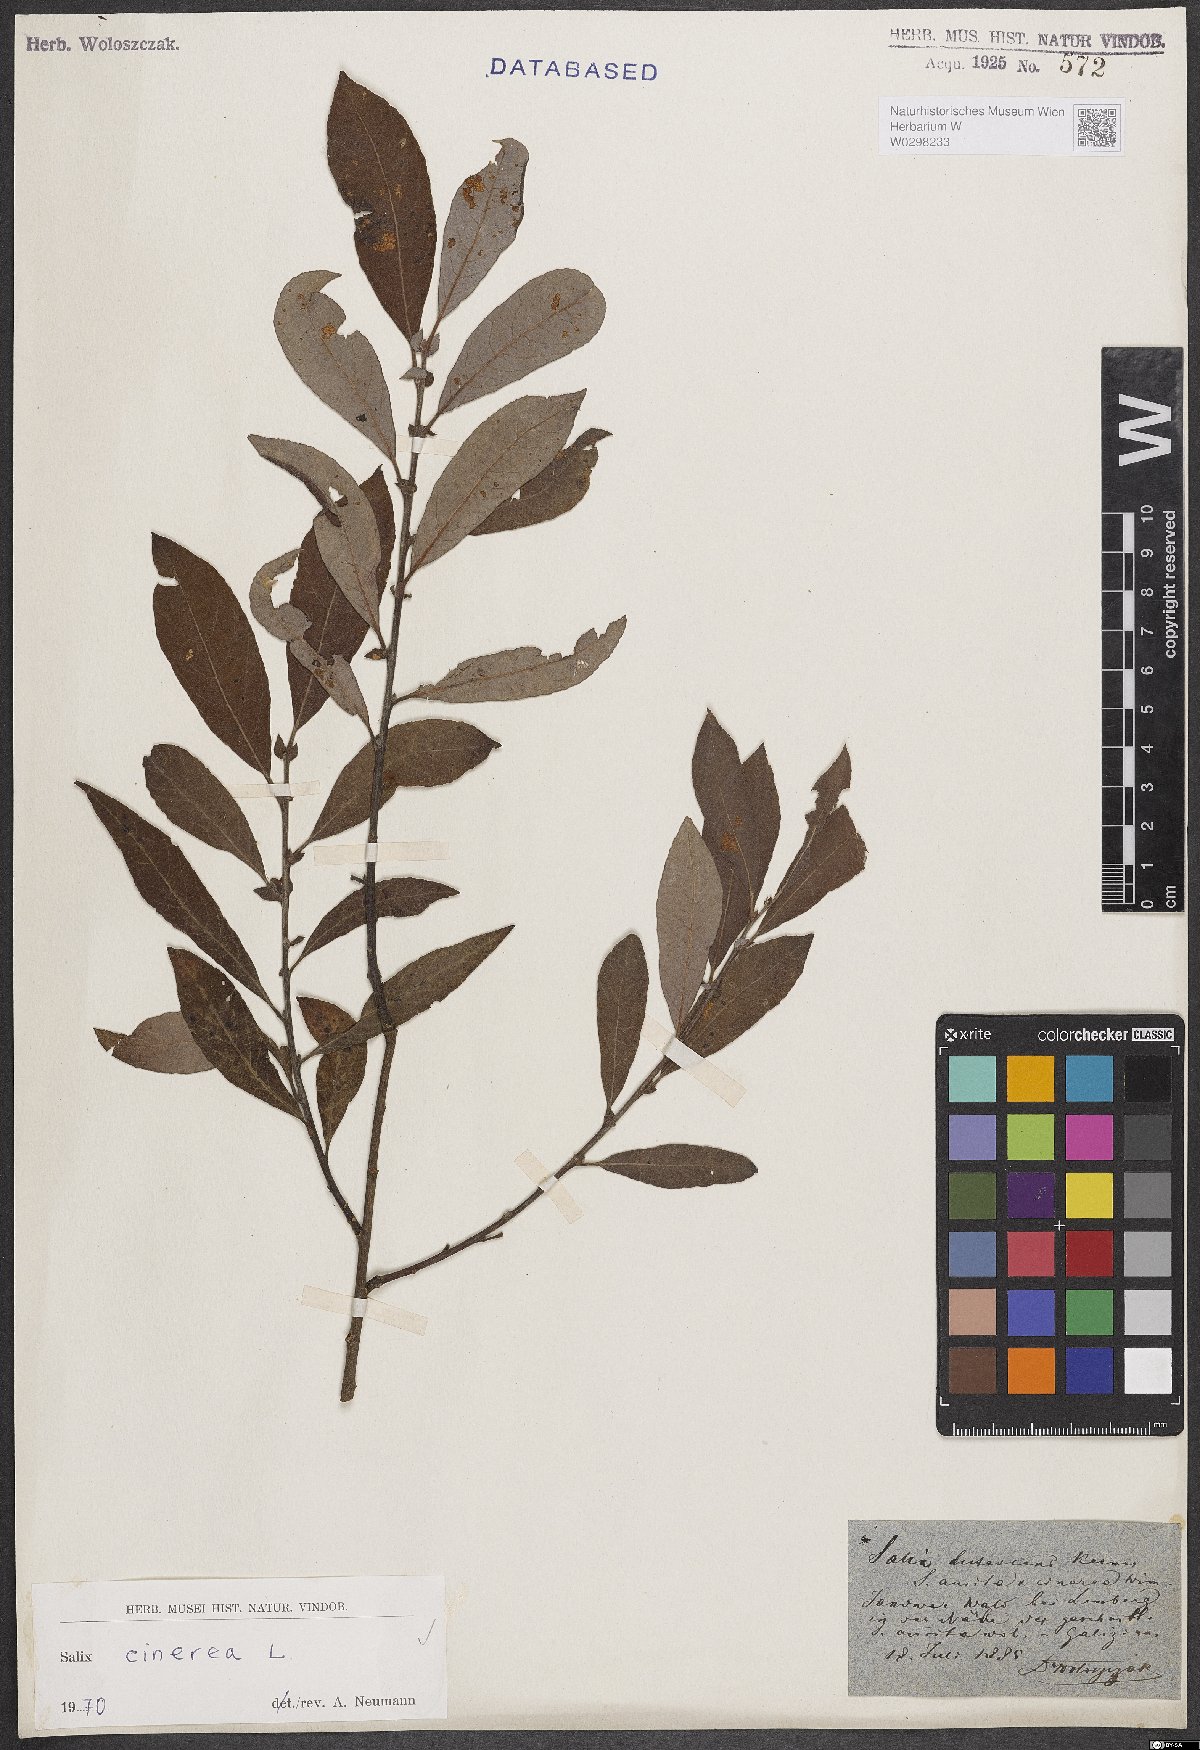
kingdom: Plantae
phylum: Tracheophyta
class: Magnoliopsida
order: Malpighiales
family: Salicaceae
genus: Salix
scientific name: Salix cinerea
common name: Common sallow
